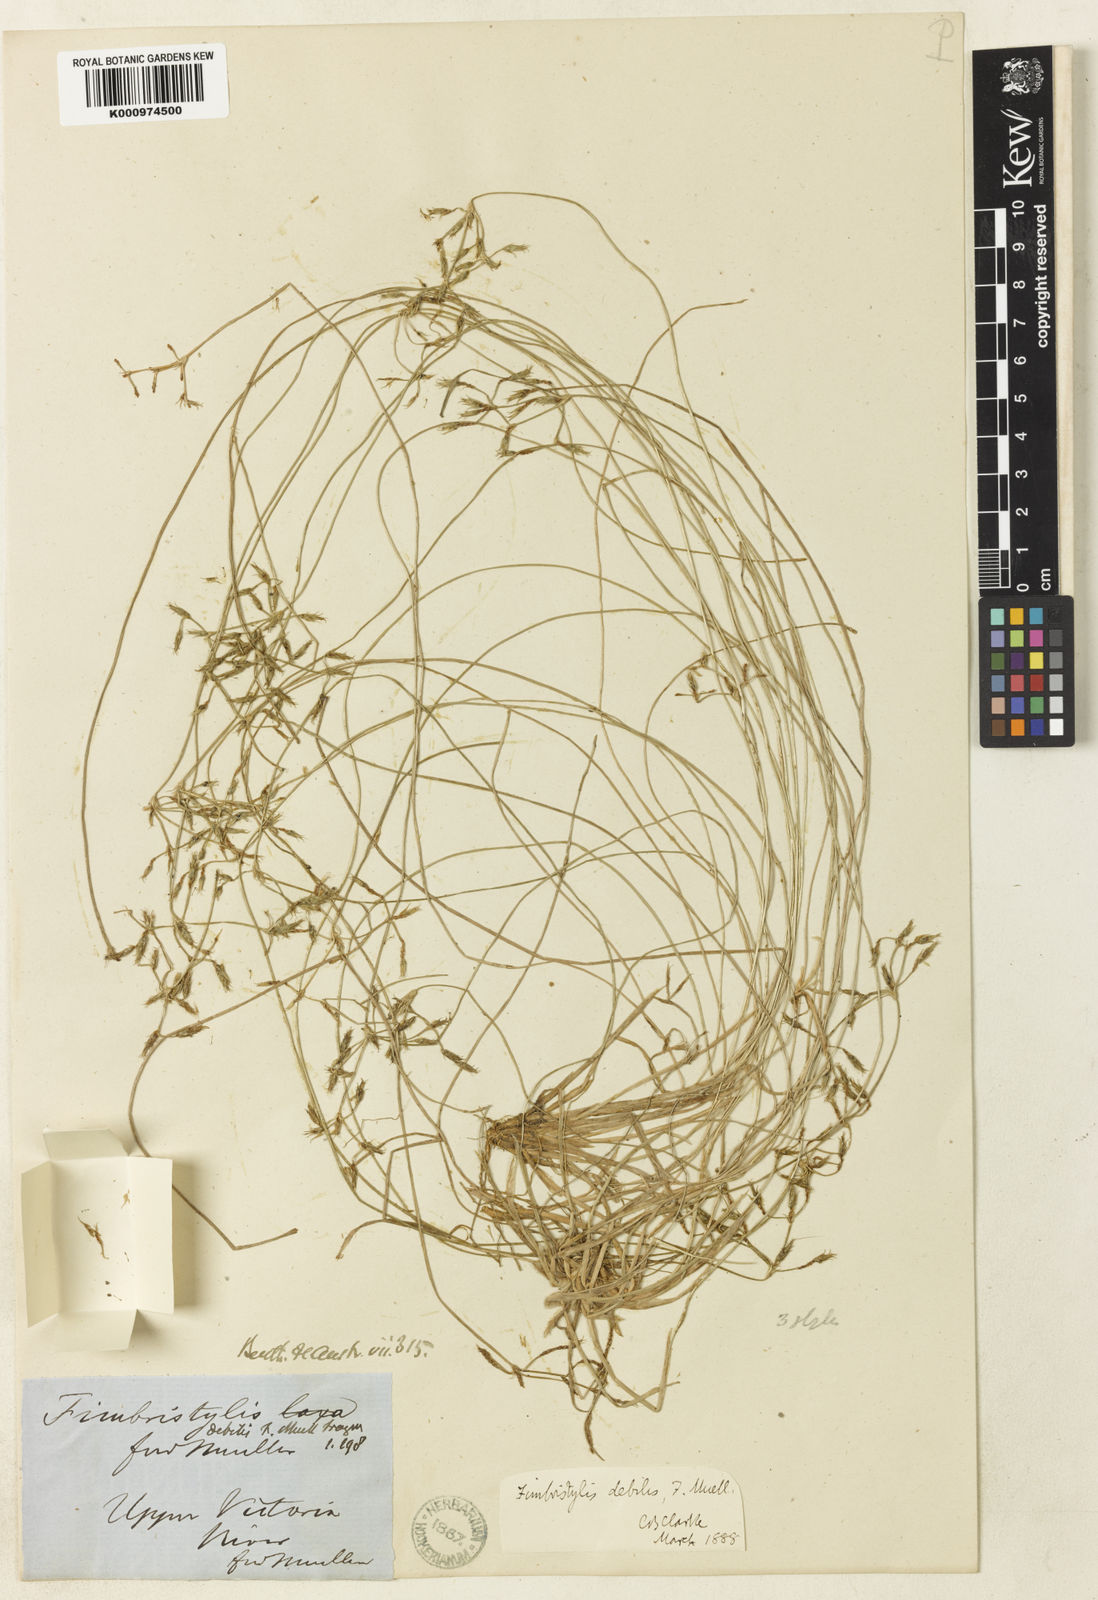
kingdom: Plantae
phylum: Tracheophyta
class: Liliopsida
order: Poales
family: Cyperaceae
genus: Fimbristylis
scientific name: Fimbristylis insignis
